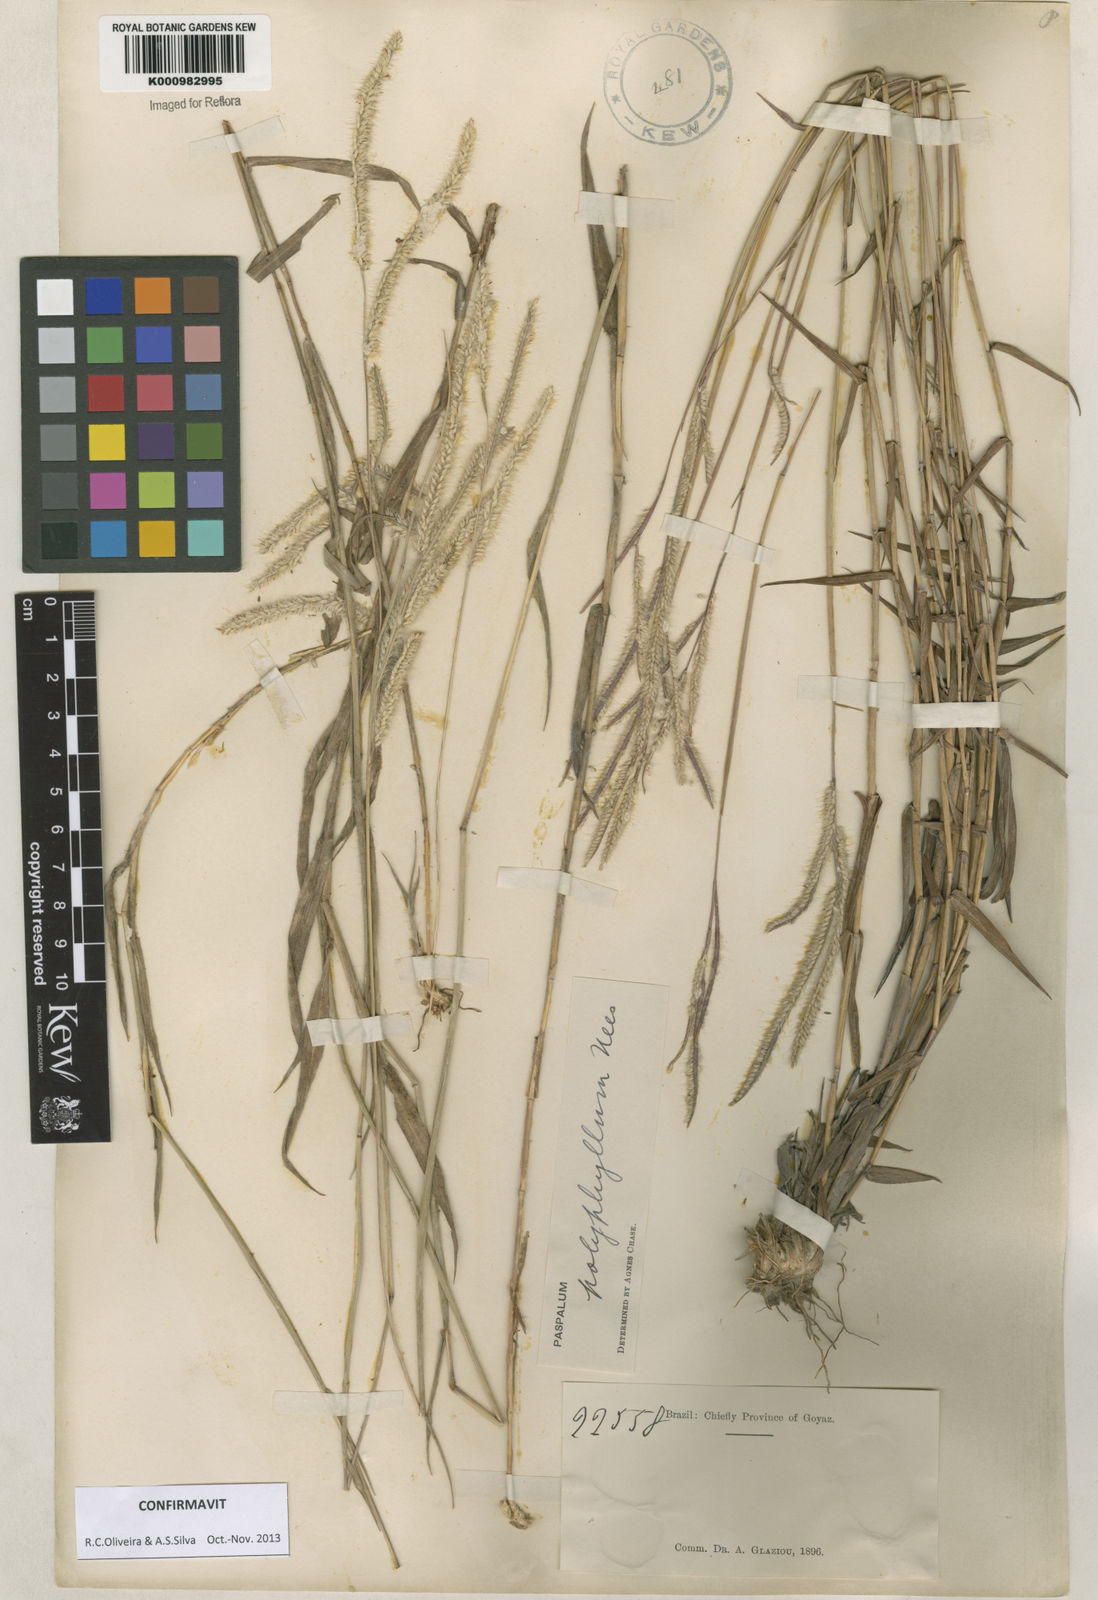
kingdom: Plantae
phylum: Tracheophyta
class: Liliopsida
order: Poales
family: Poaceae
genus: Paspalum
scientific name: Paspalum
